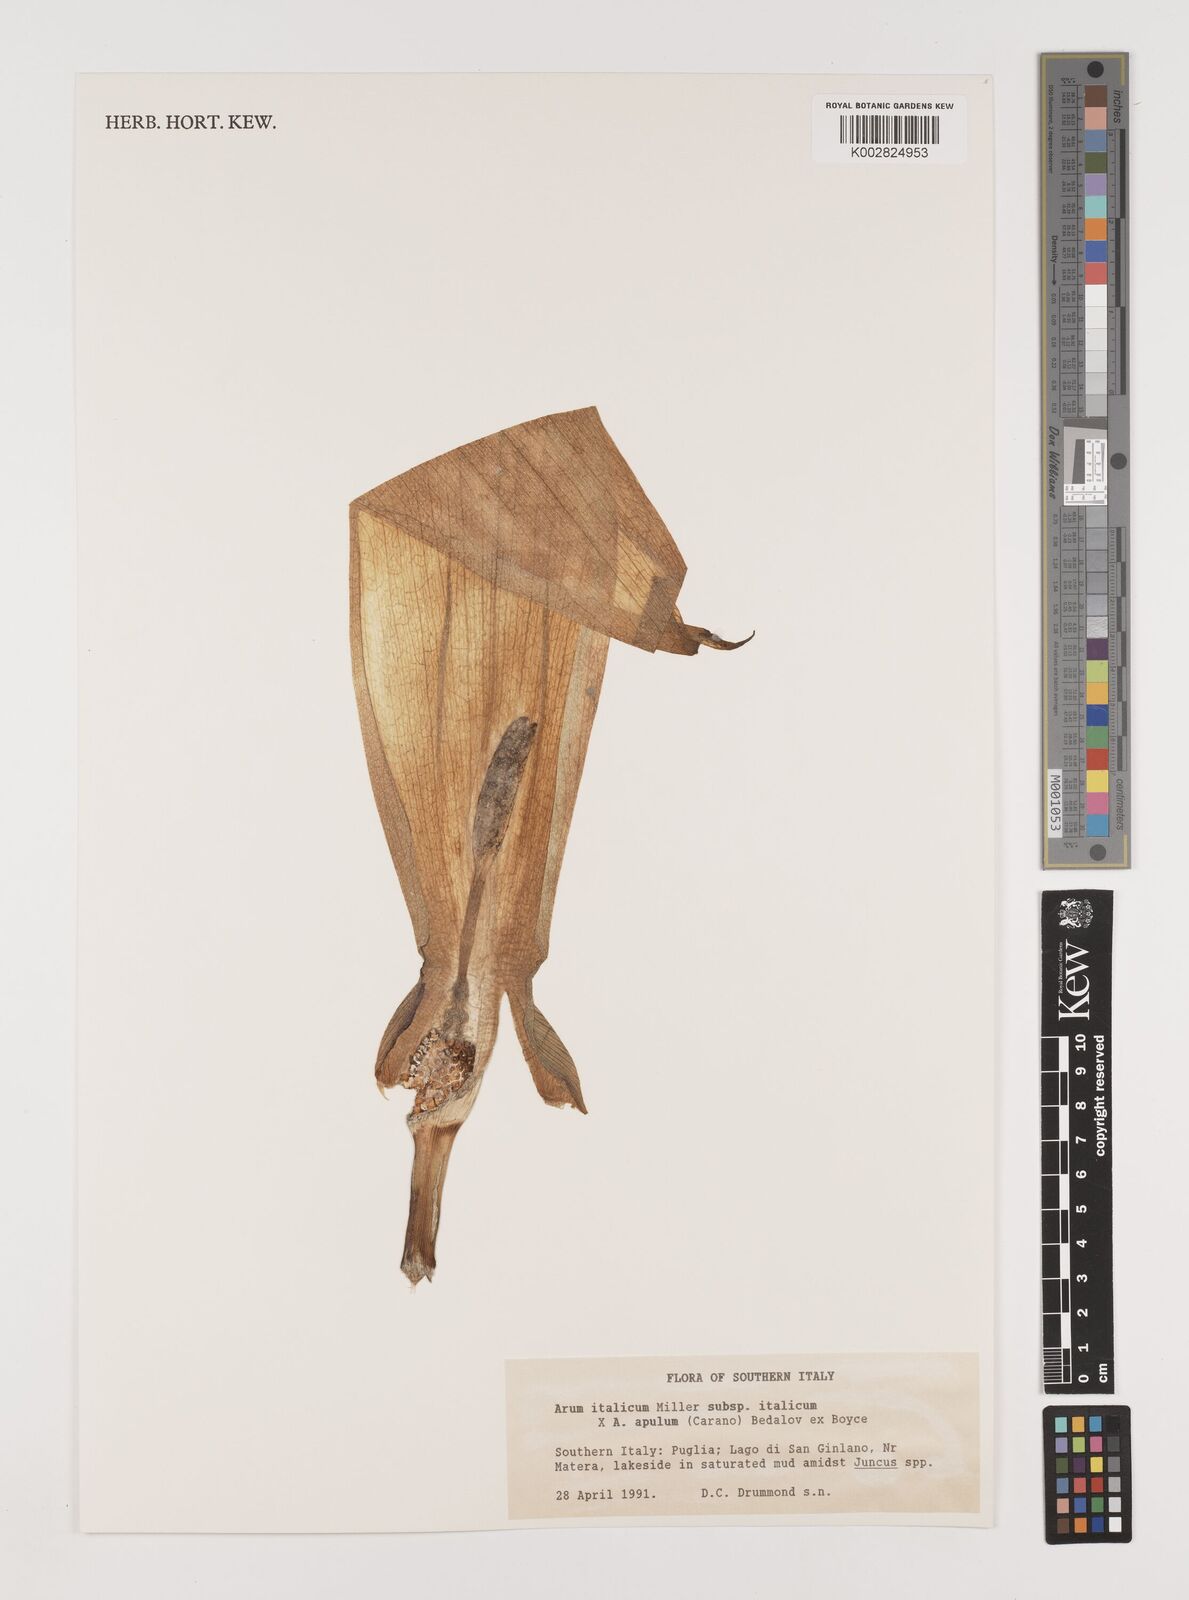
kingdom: Plantae
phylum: Tracheophyta
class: Liliopsida
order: Alismatales
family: Araceae
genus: Arum
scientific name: Arum italicum
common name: Italian lords-and-ladies
